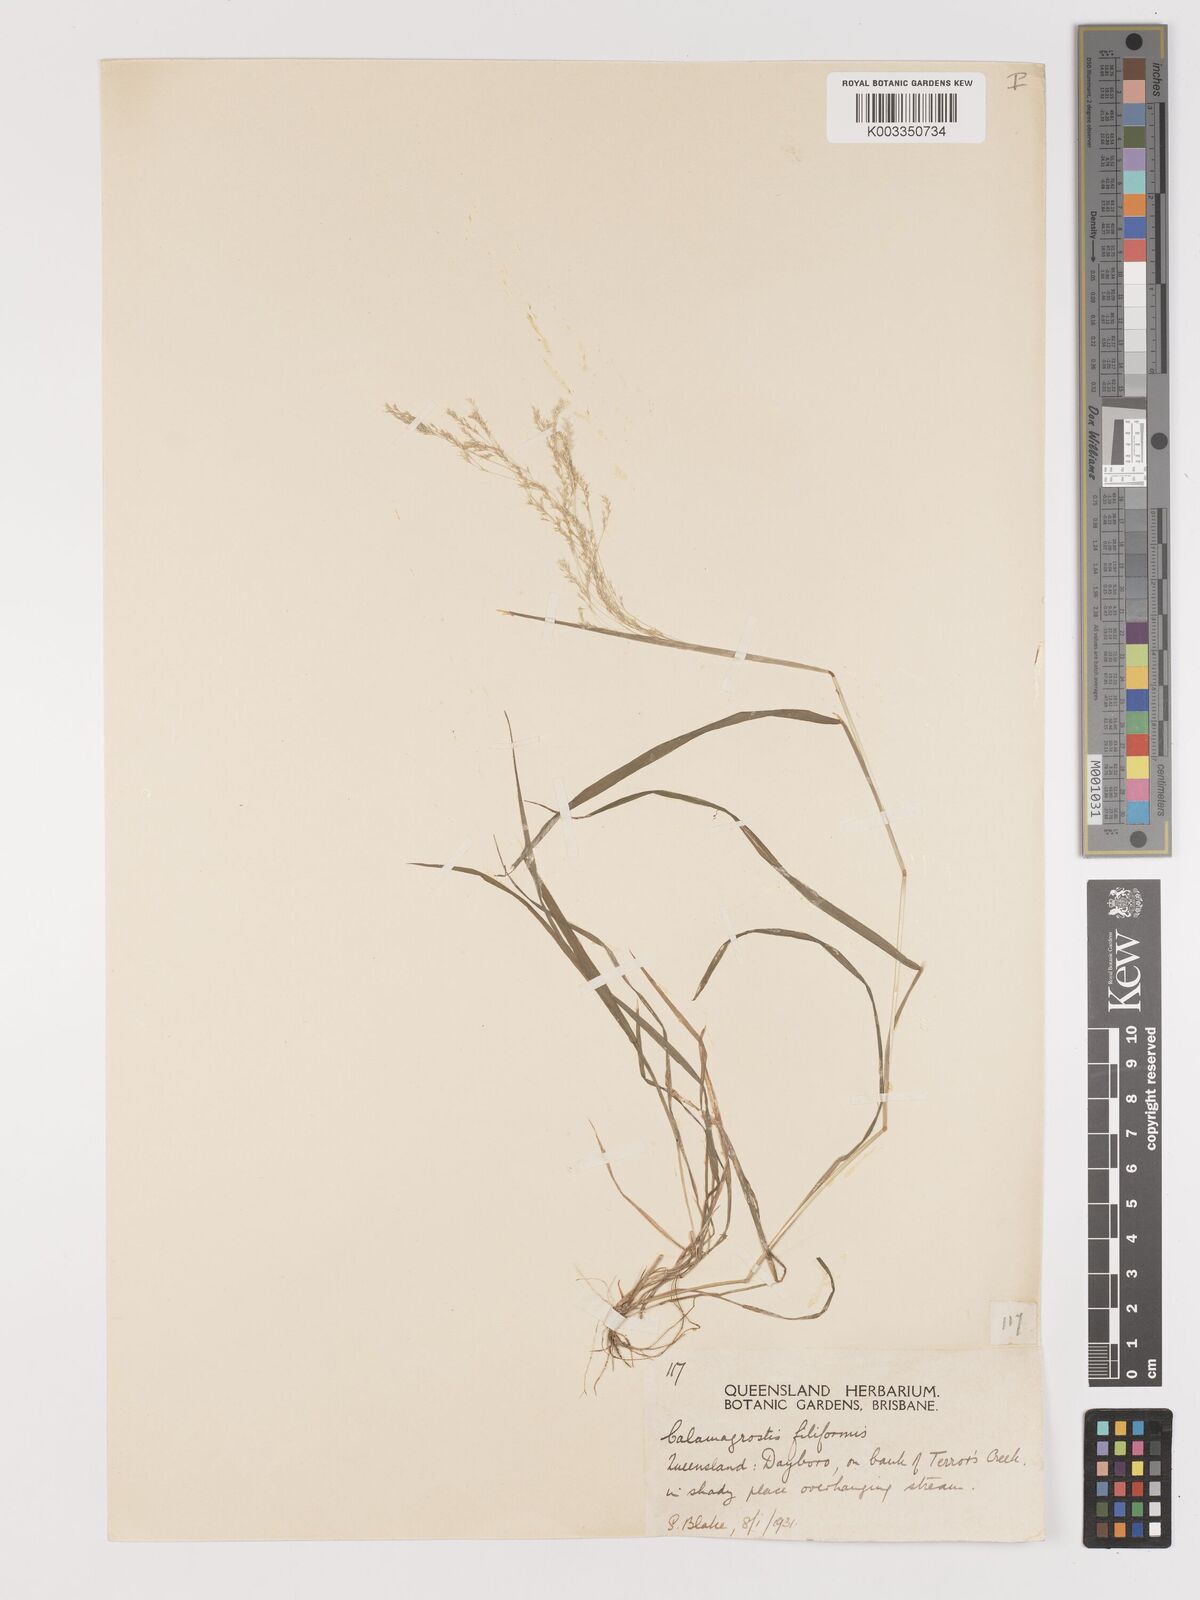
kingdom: Plantae
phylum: Tracheophyta
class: Liliopsida
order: Poales
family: Poaceae
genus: Lachnagrostis
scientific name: Lachnagrostis filiformis
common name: Bentgrass
